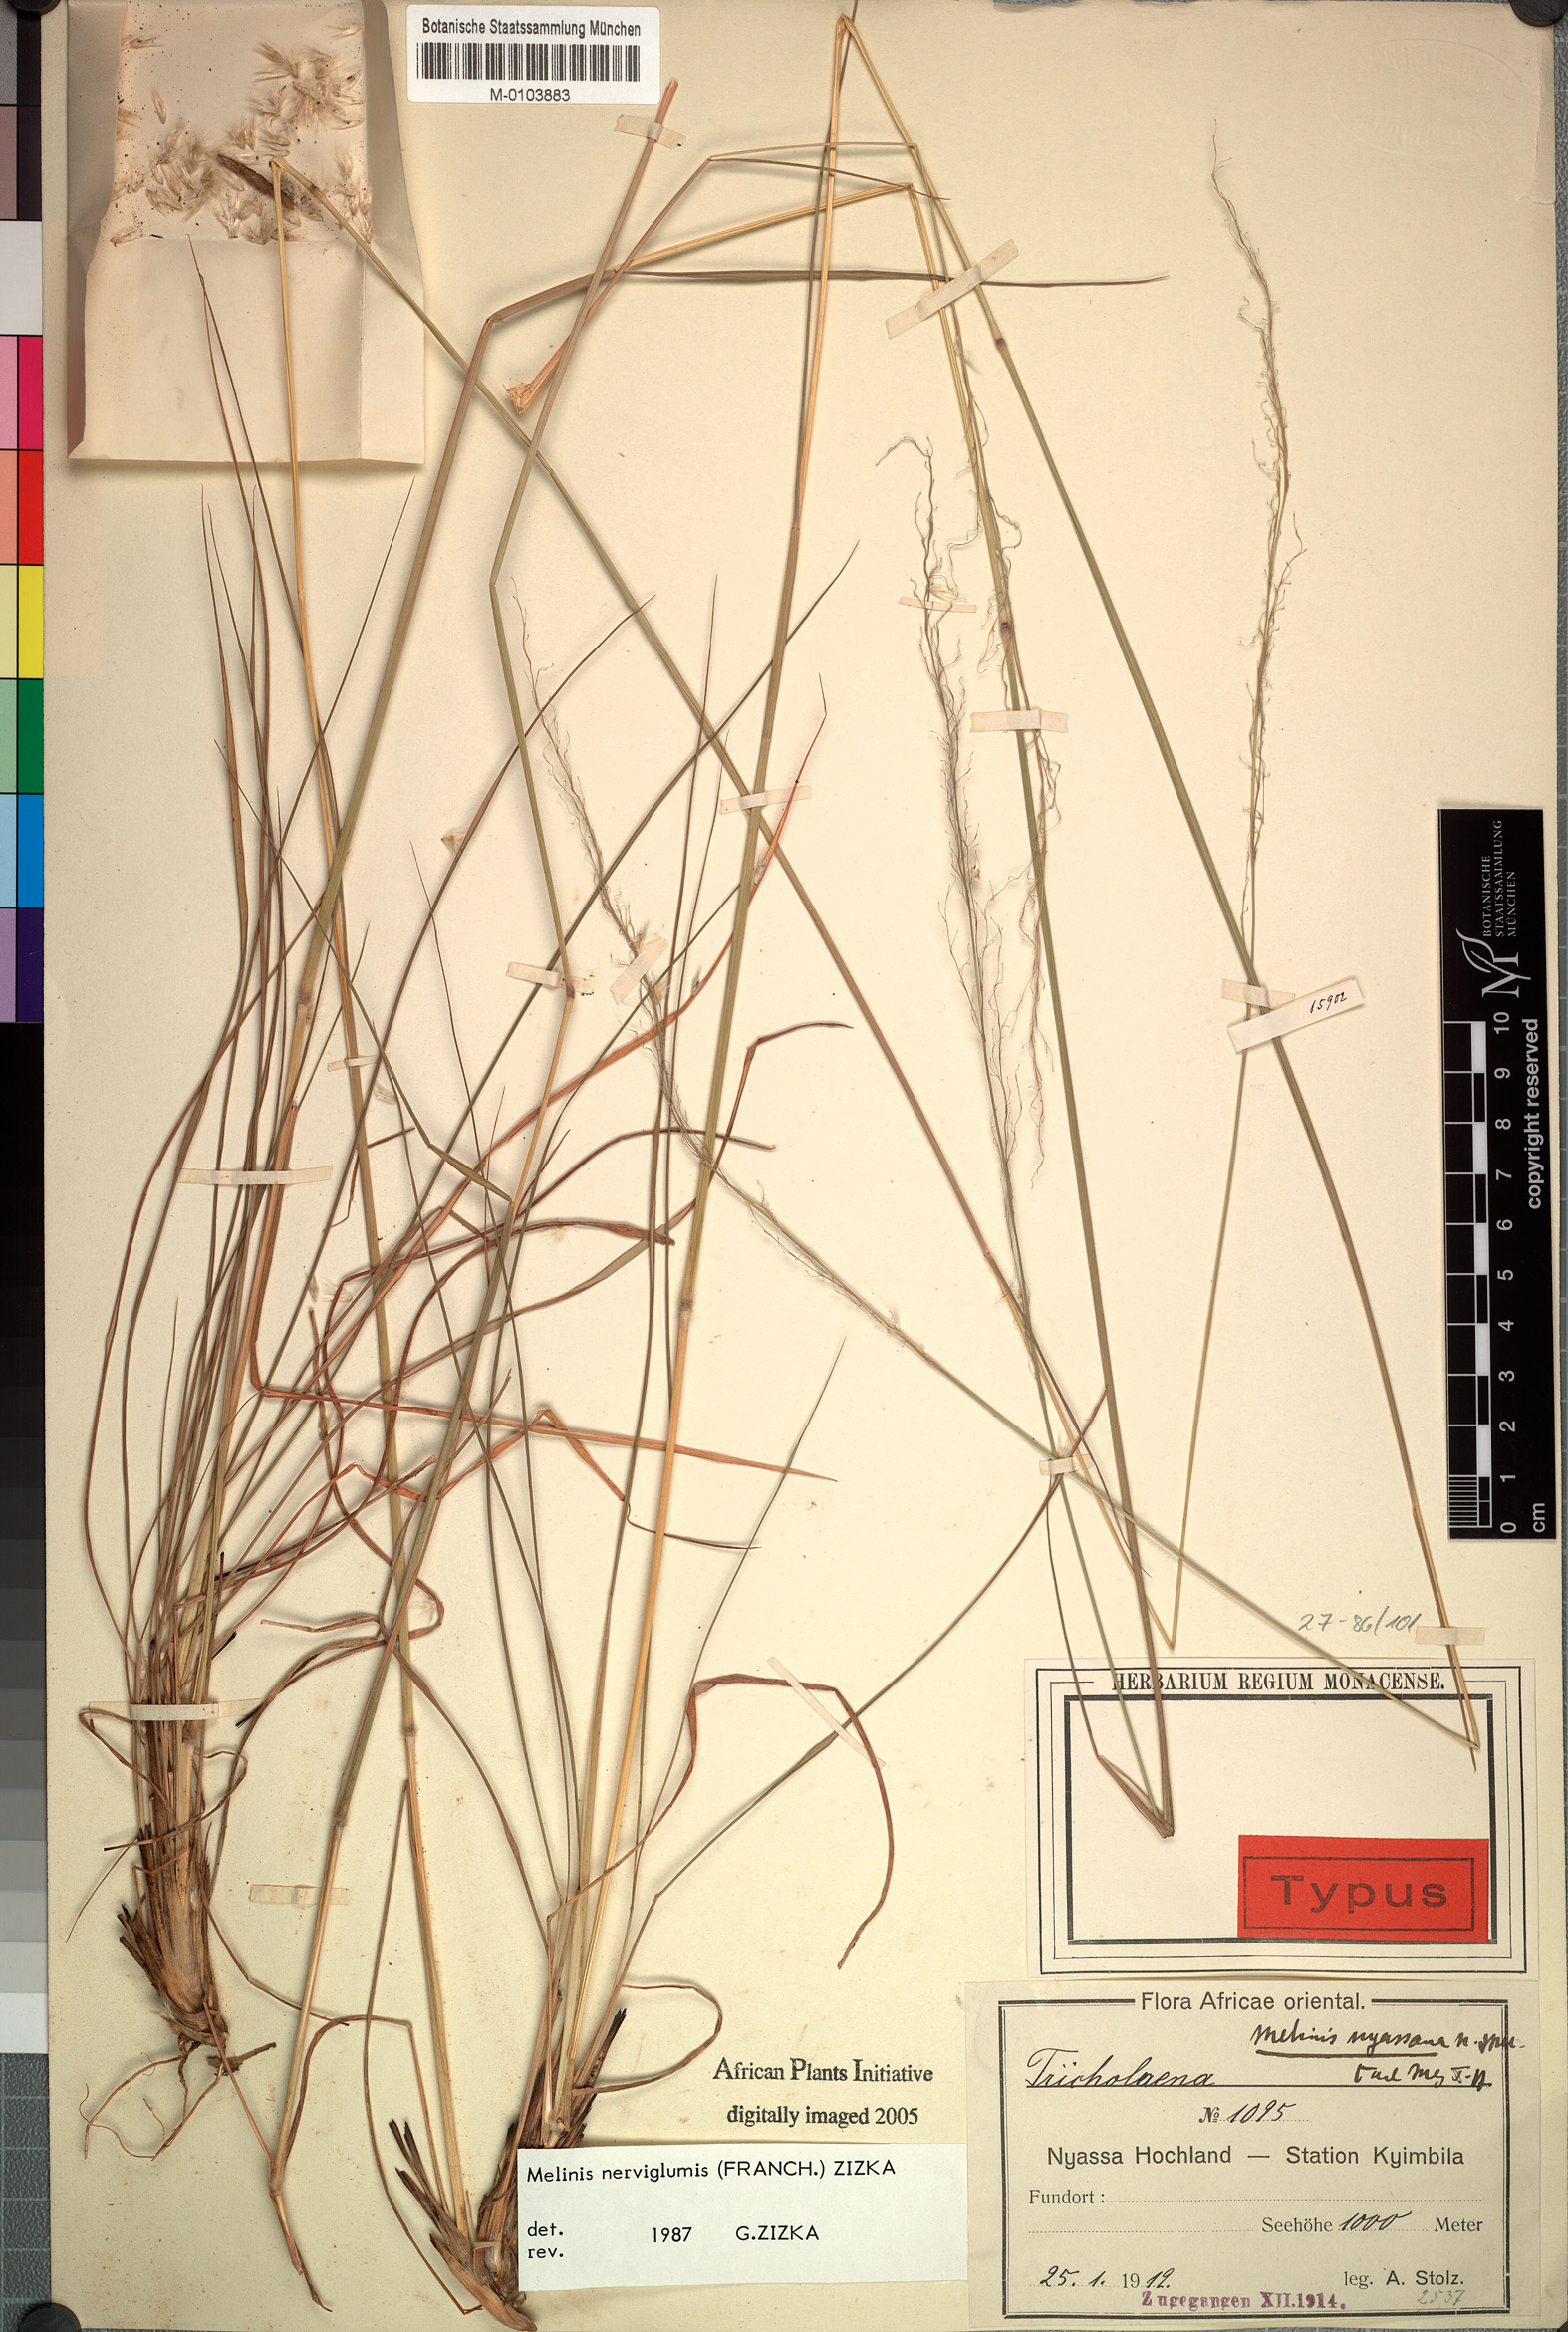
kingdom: Plantae
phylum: Tracheophyta
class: Liliopsida
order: Poales
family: Poaceae
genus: Melinis
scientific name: Melinis nerviglumis
